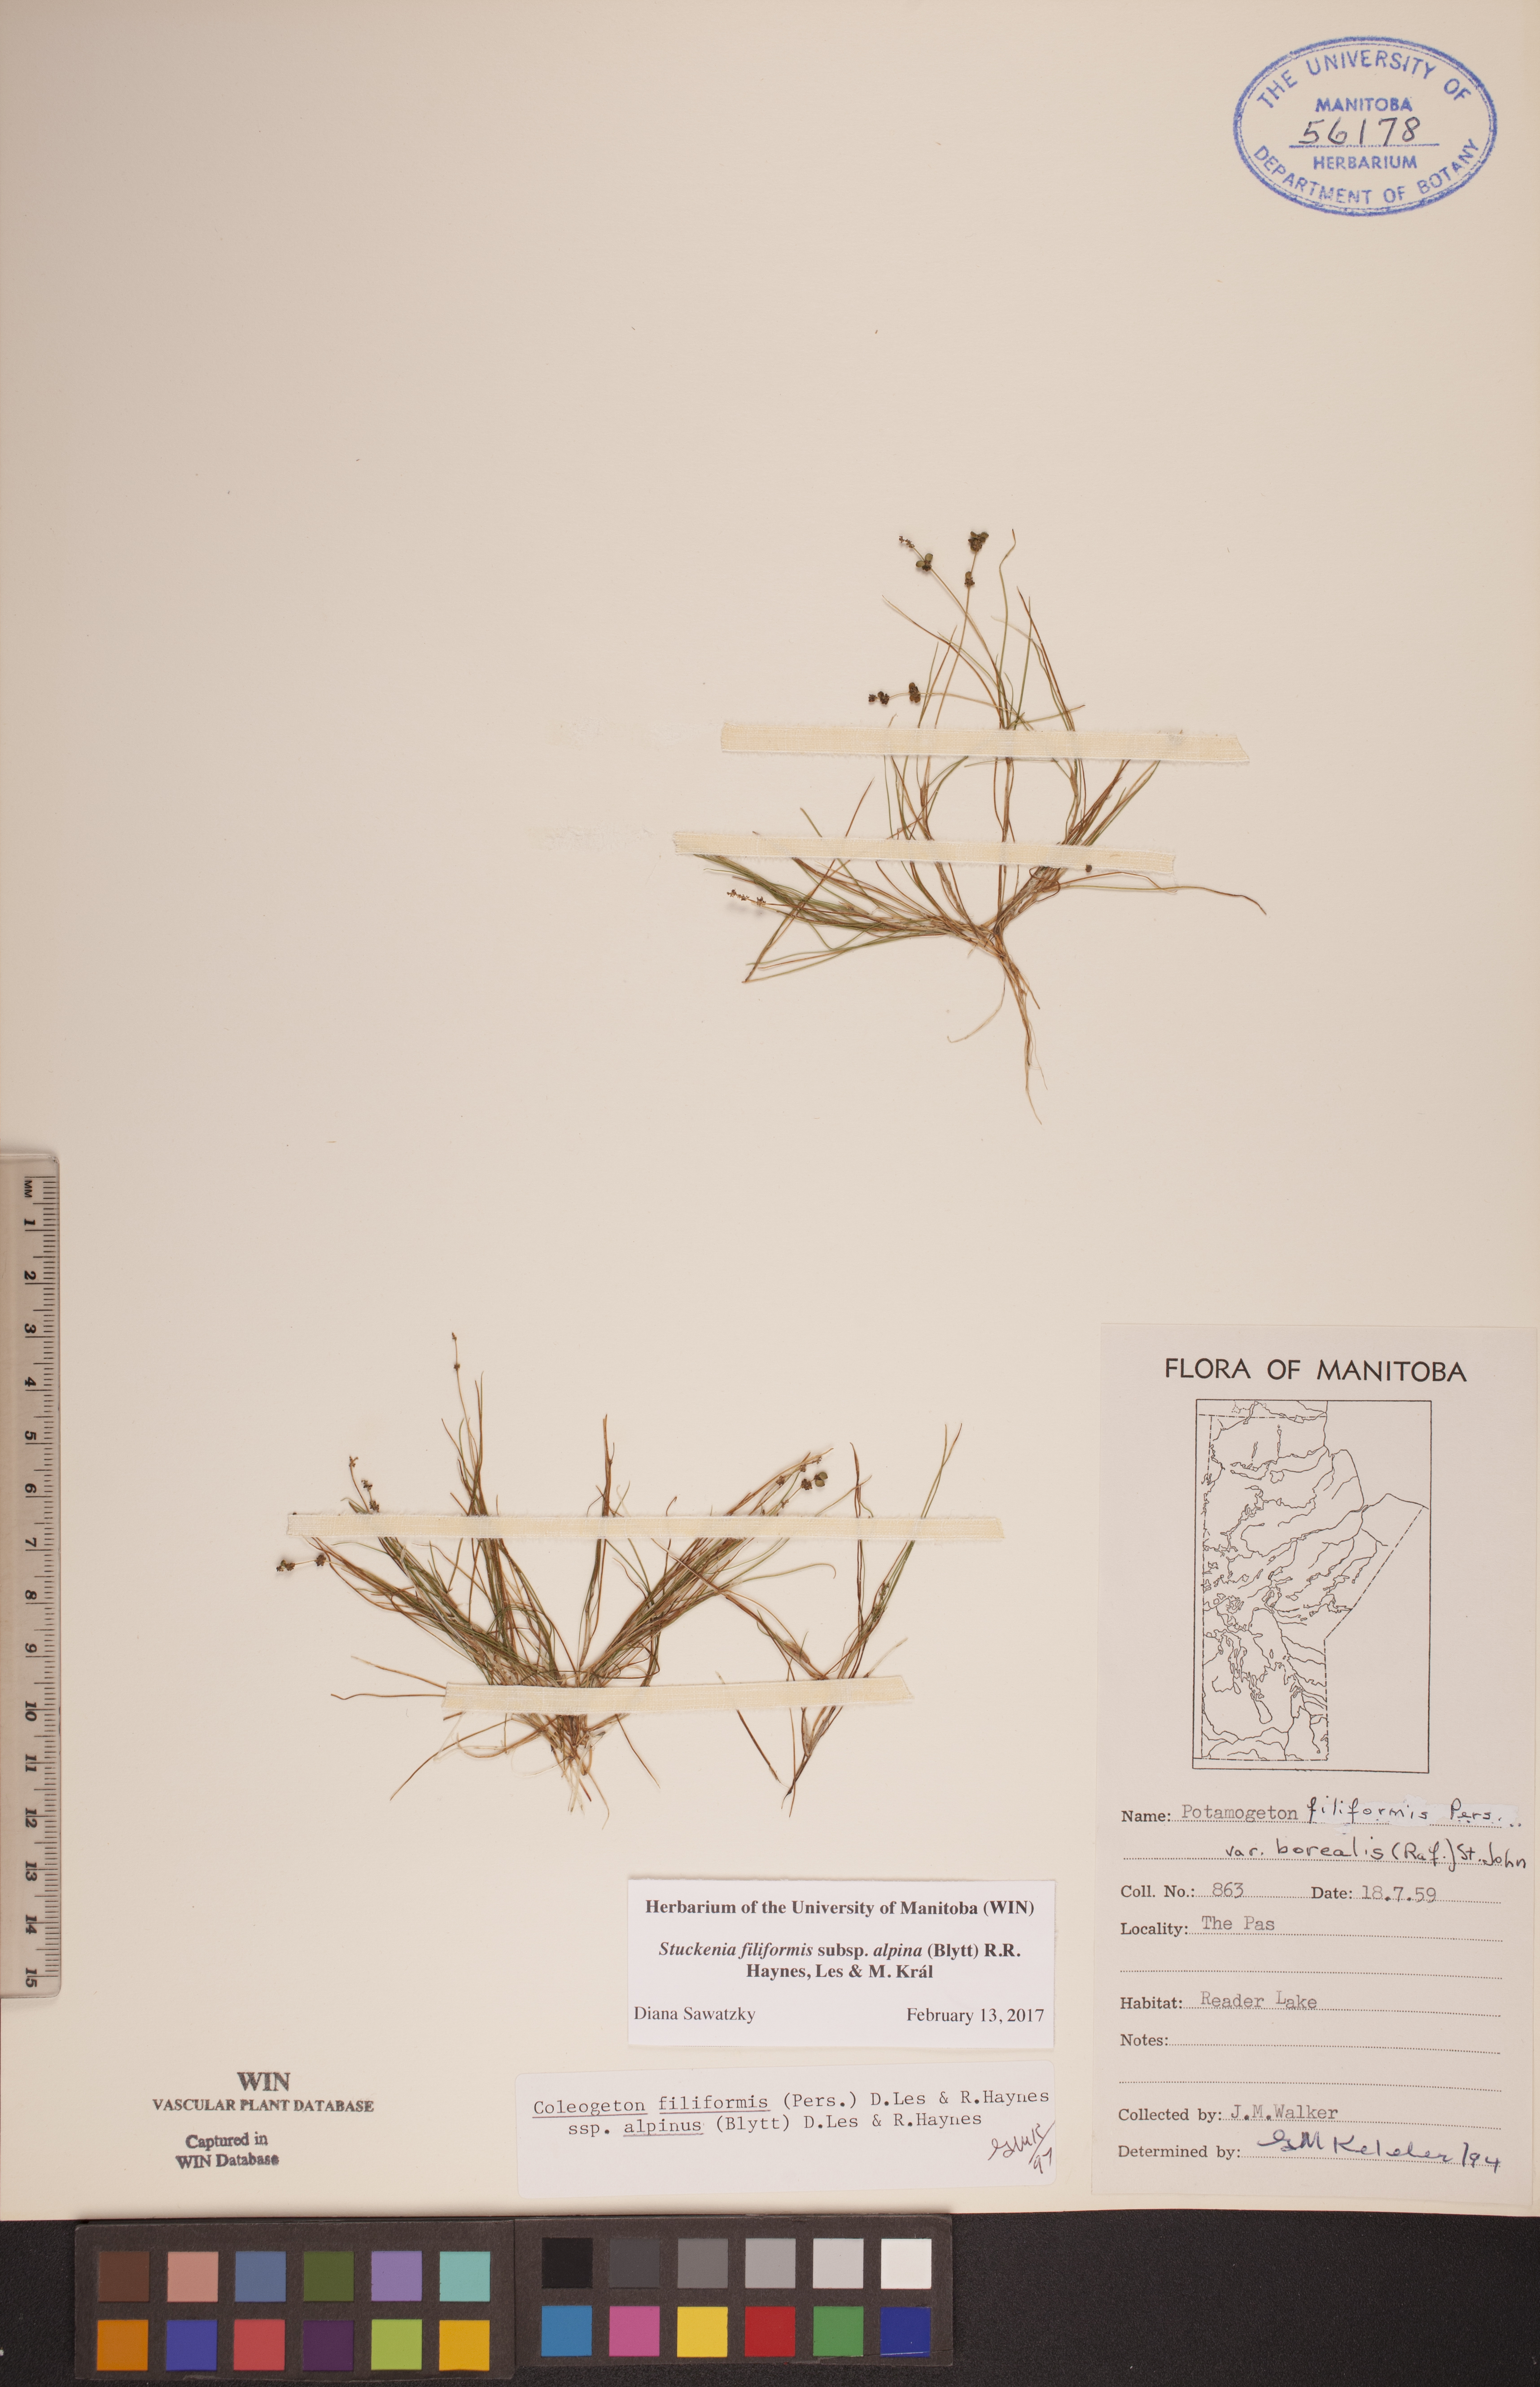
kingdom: Plantae
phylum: Tracheophyta
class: Liliopsida
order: Alismatales
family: Potamogetonaceae
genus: Stuckenia
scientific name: Stuckenia filiformis
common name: Alpine thread-leaved pondweed
